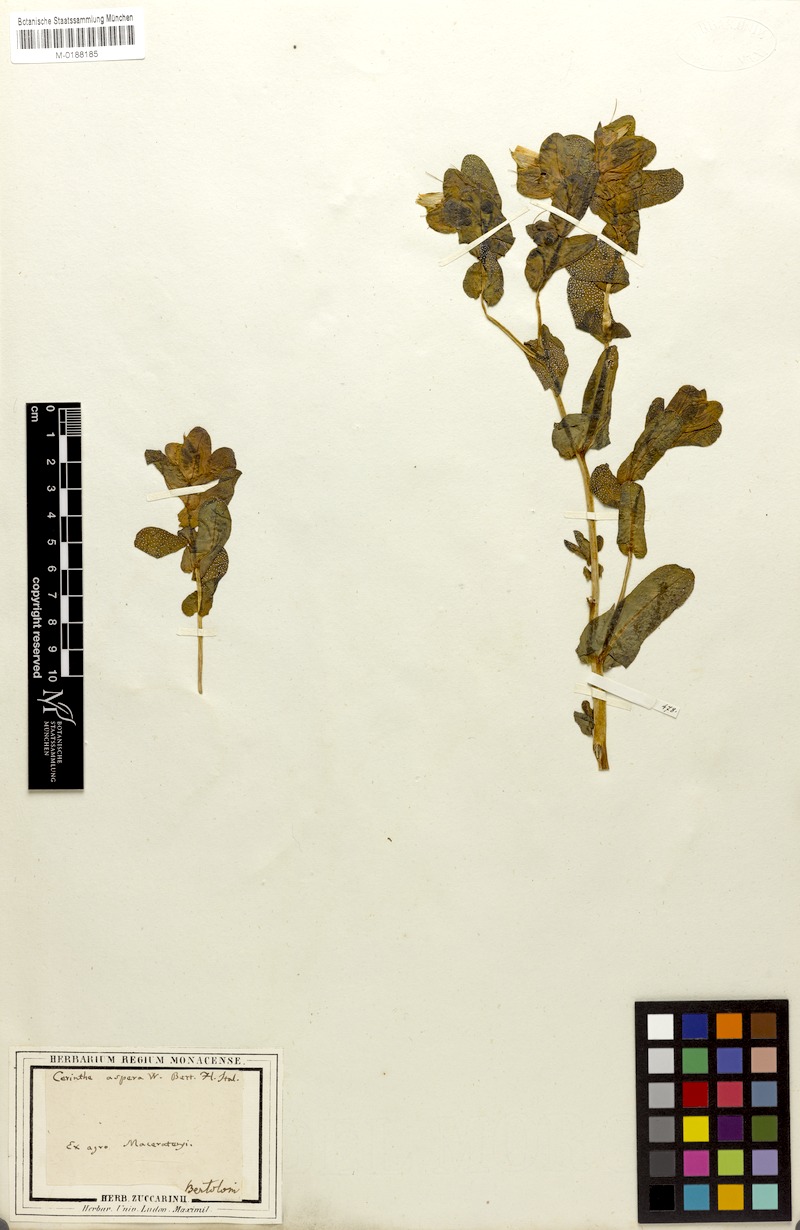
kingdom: Plantae
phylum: Tracheophyta
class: Magnoliopsida
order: Boraginales
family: Boraginaceae
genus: Cerinthe
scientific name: Cerinthe major
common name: Greater honeywort
